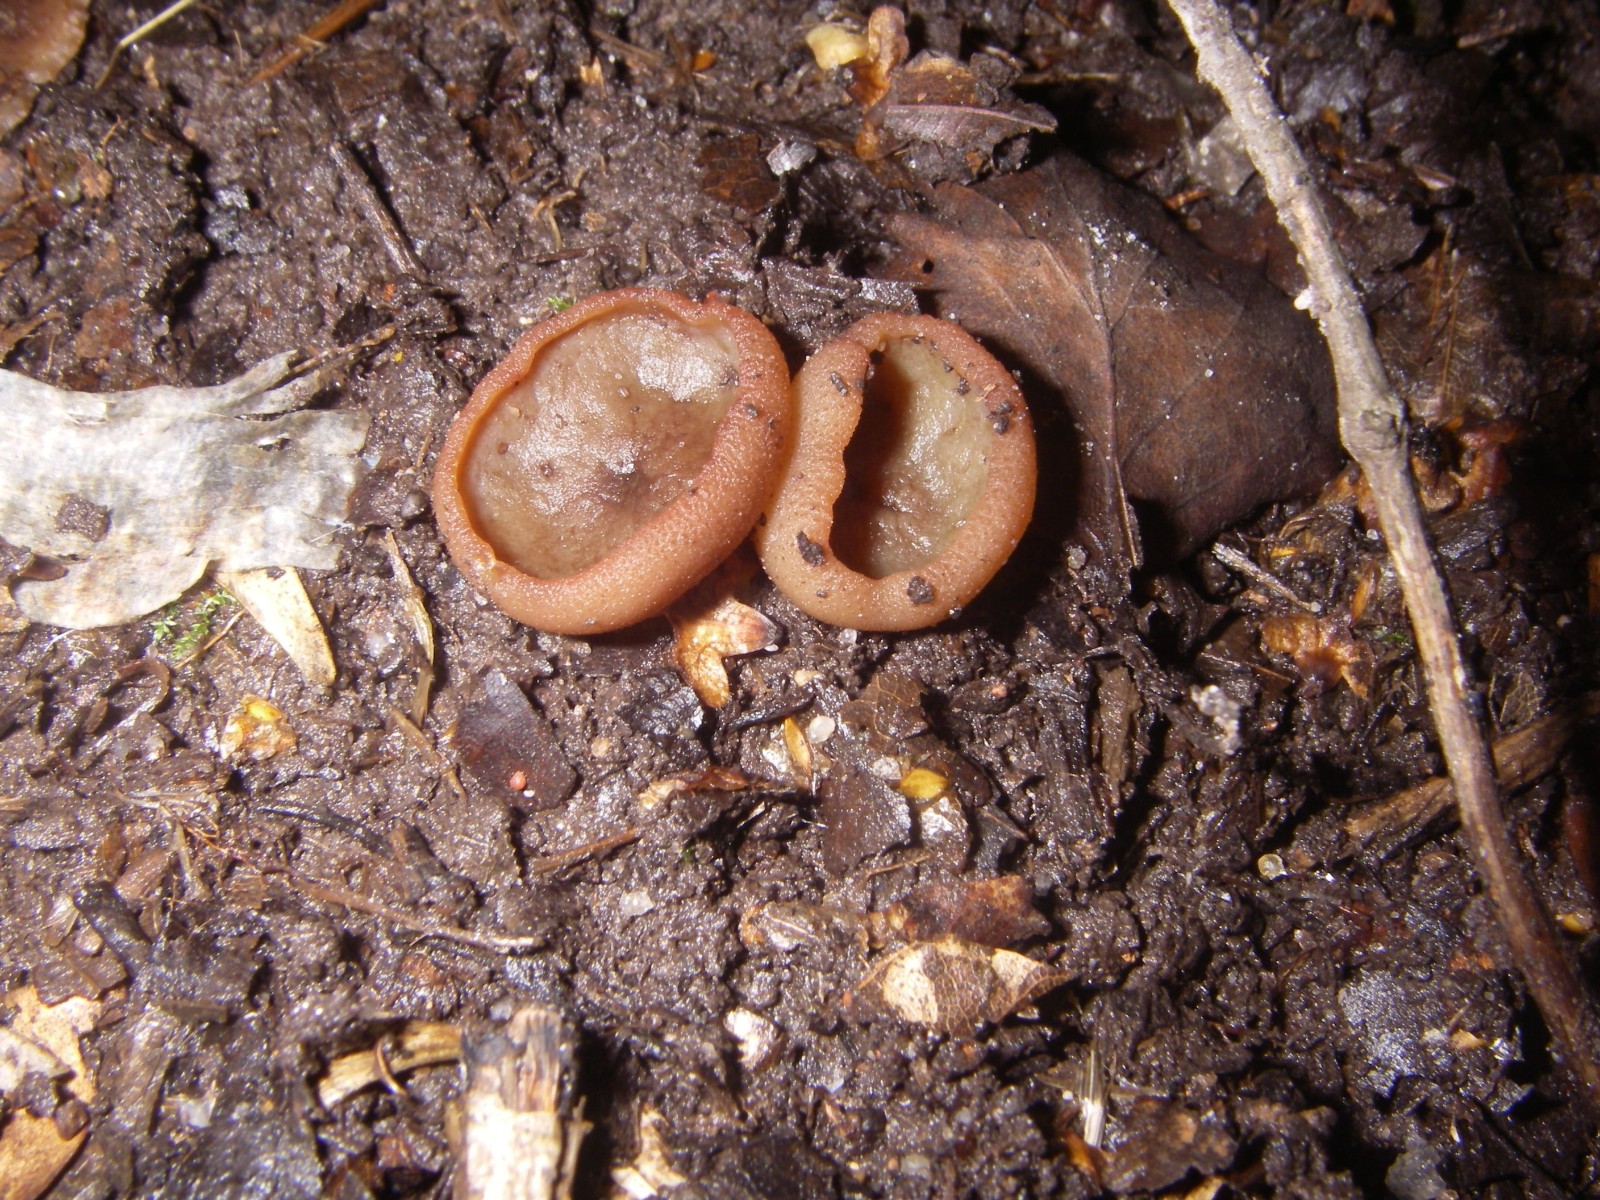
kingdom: Fungi
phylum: Ascomycota
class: Pezizomycetes
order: Pezizales
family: Pezizaceae
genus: Legaliana
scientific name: Legaliana limnaea
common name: mose-bægersvamp
